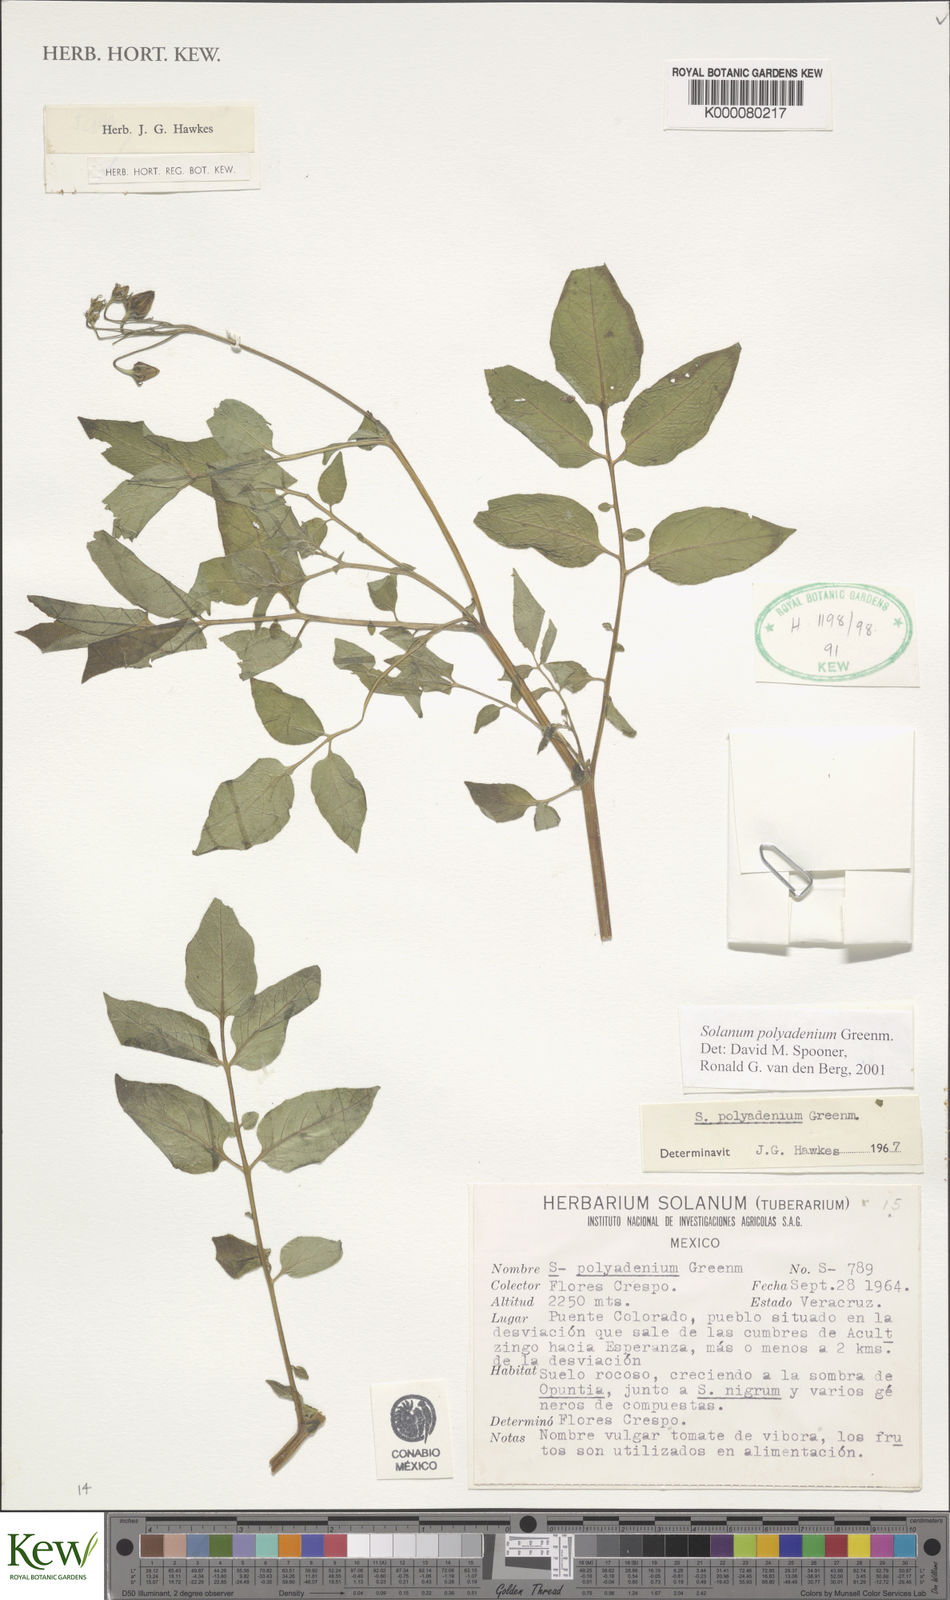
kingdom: Plantae
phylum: Tracheophyta
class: Magnoliopsida
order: Solanales
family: Solanaceae
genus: Solanum
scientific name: Solanum polyadenium
